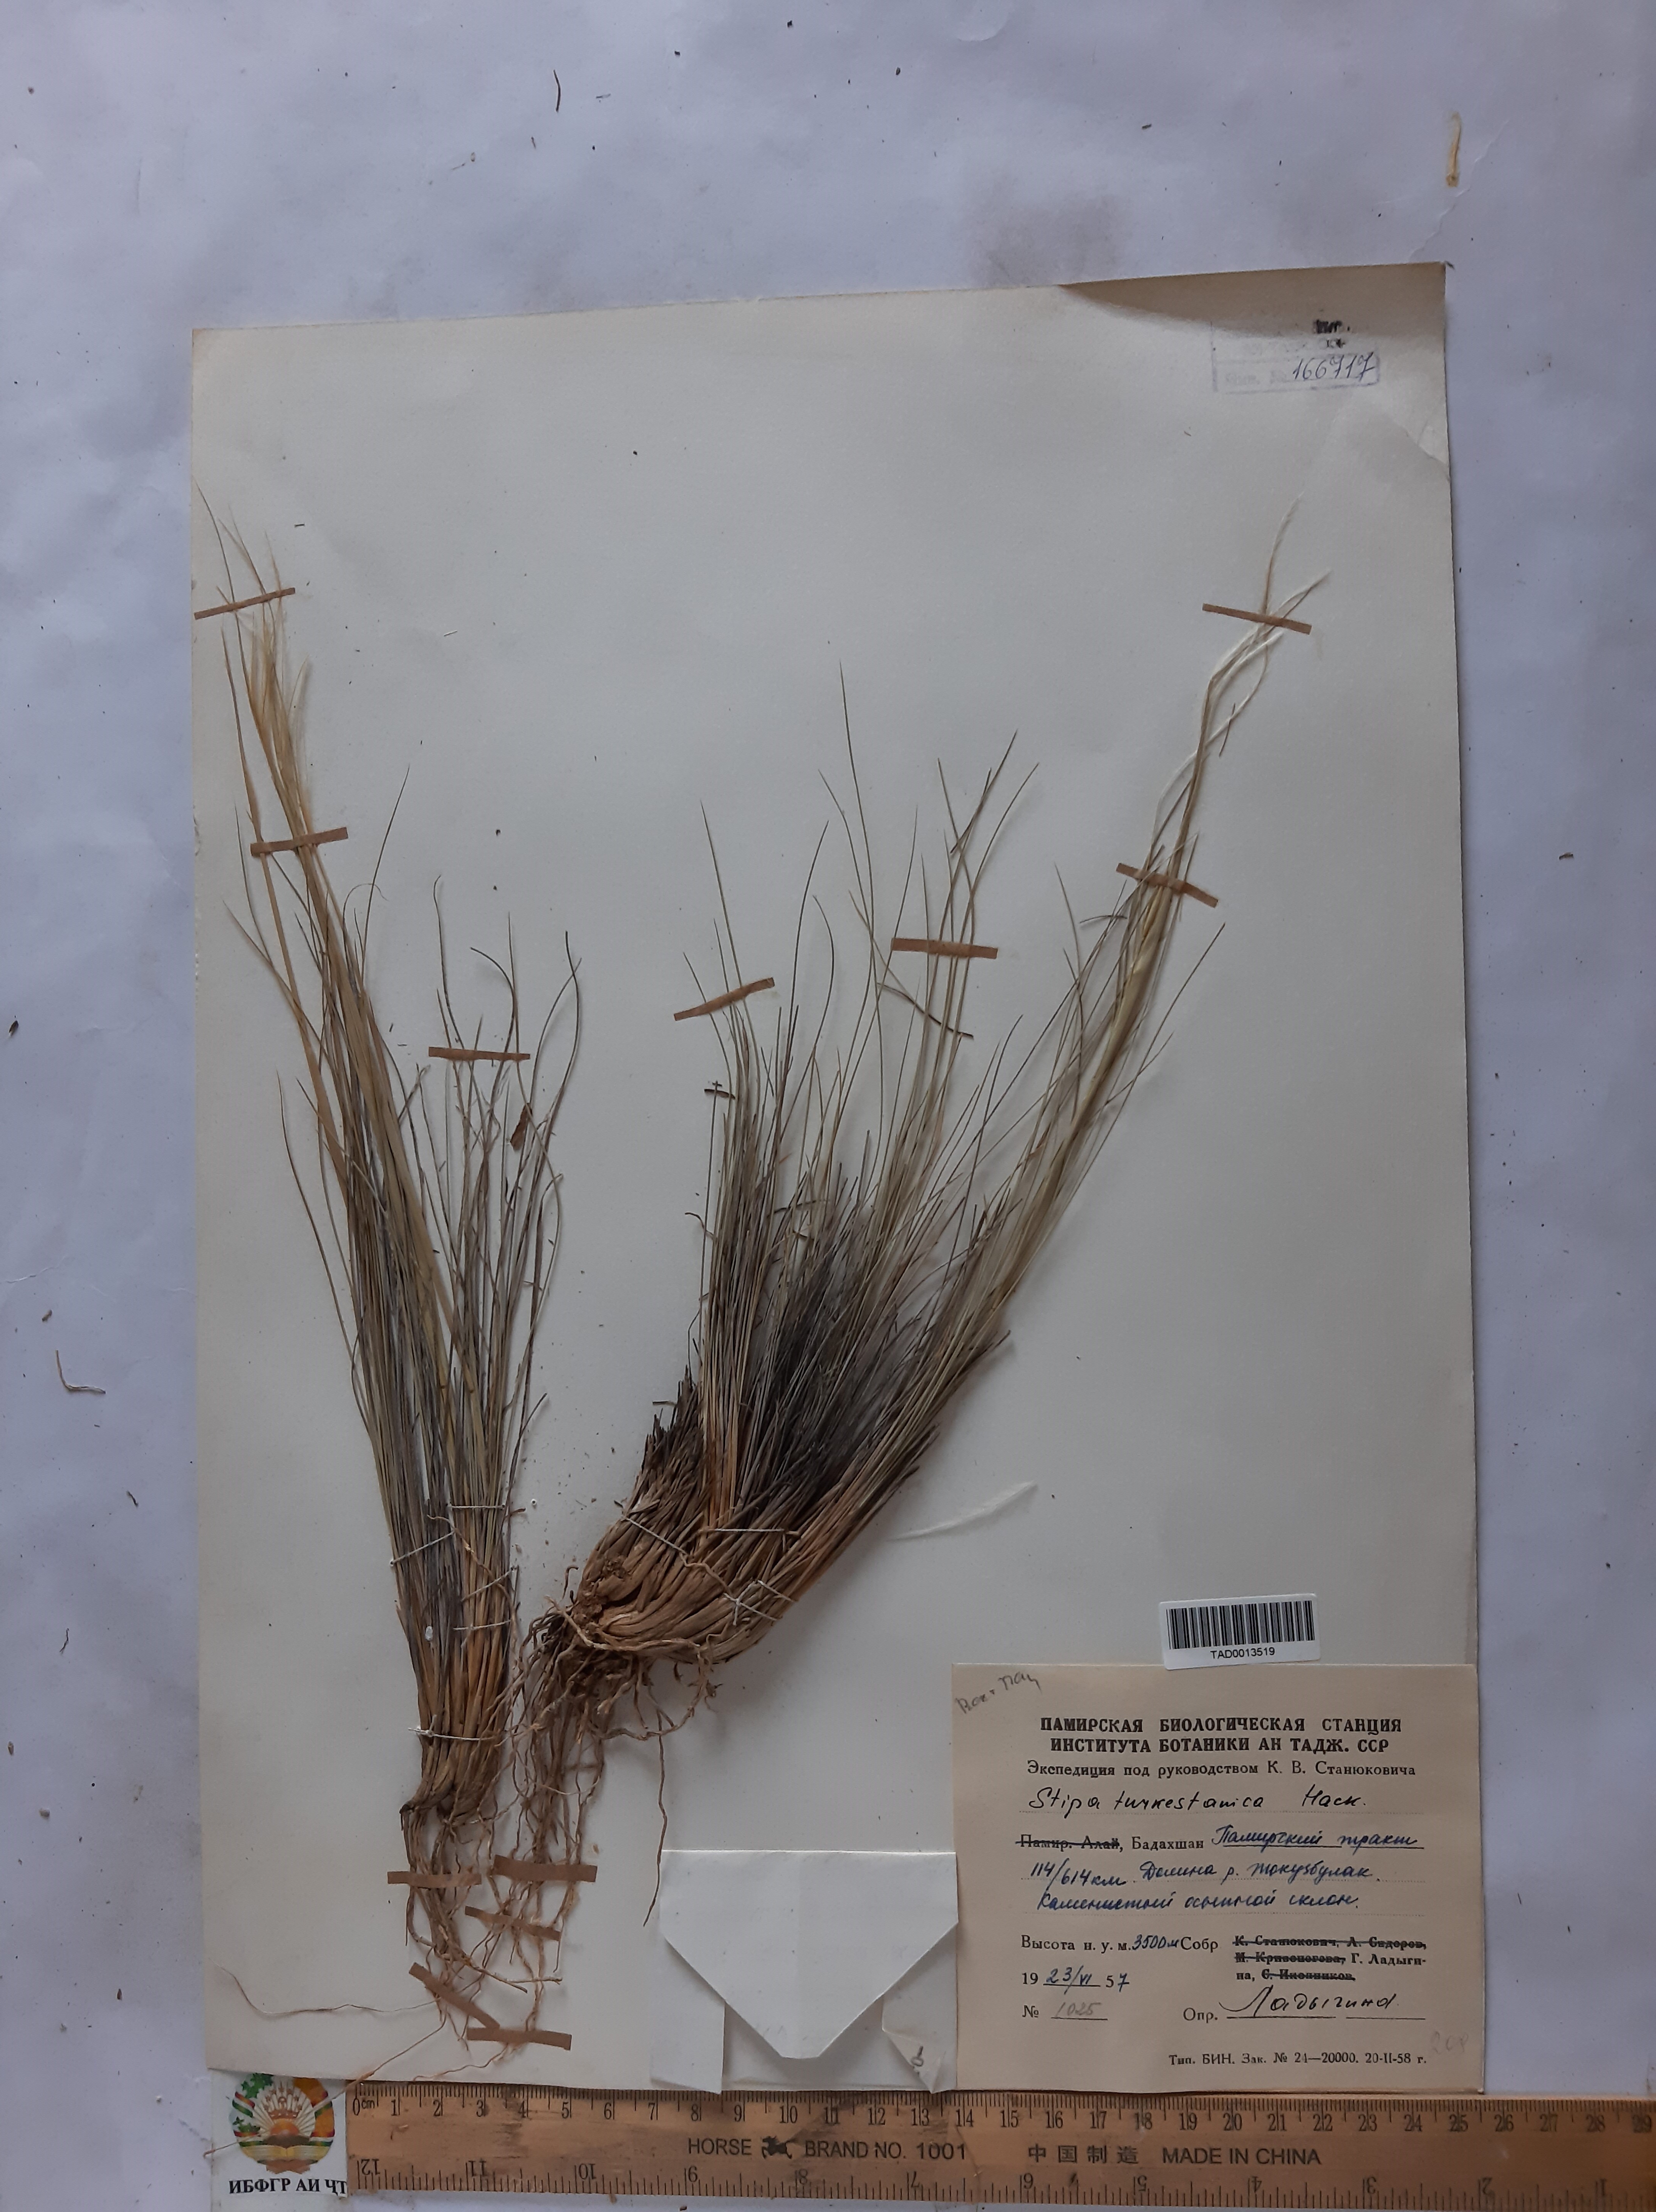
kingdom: Plantae
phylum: Tracheophyta
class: Liliopsida
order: Poales
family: Poaceae
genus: Stipa
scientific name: Stipa turkestanica
